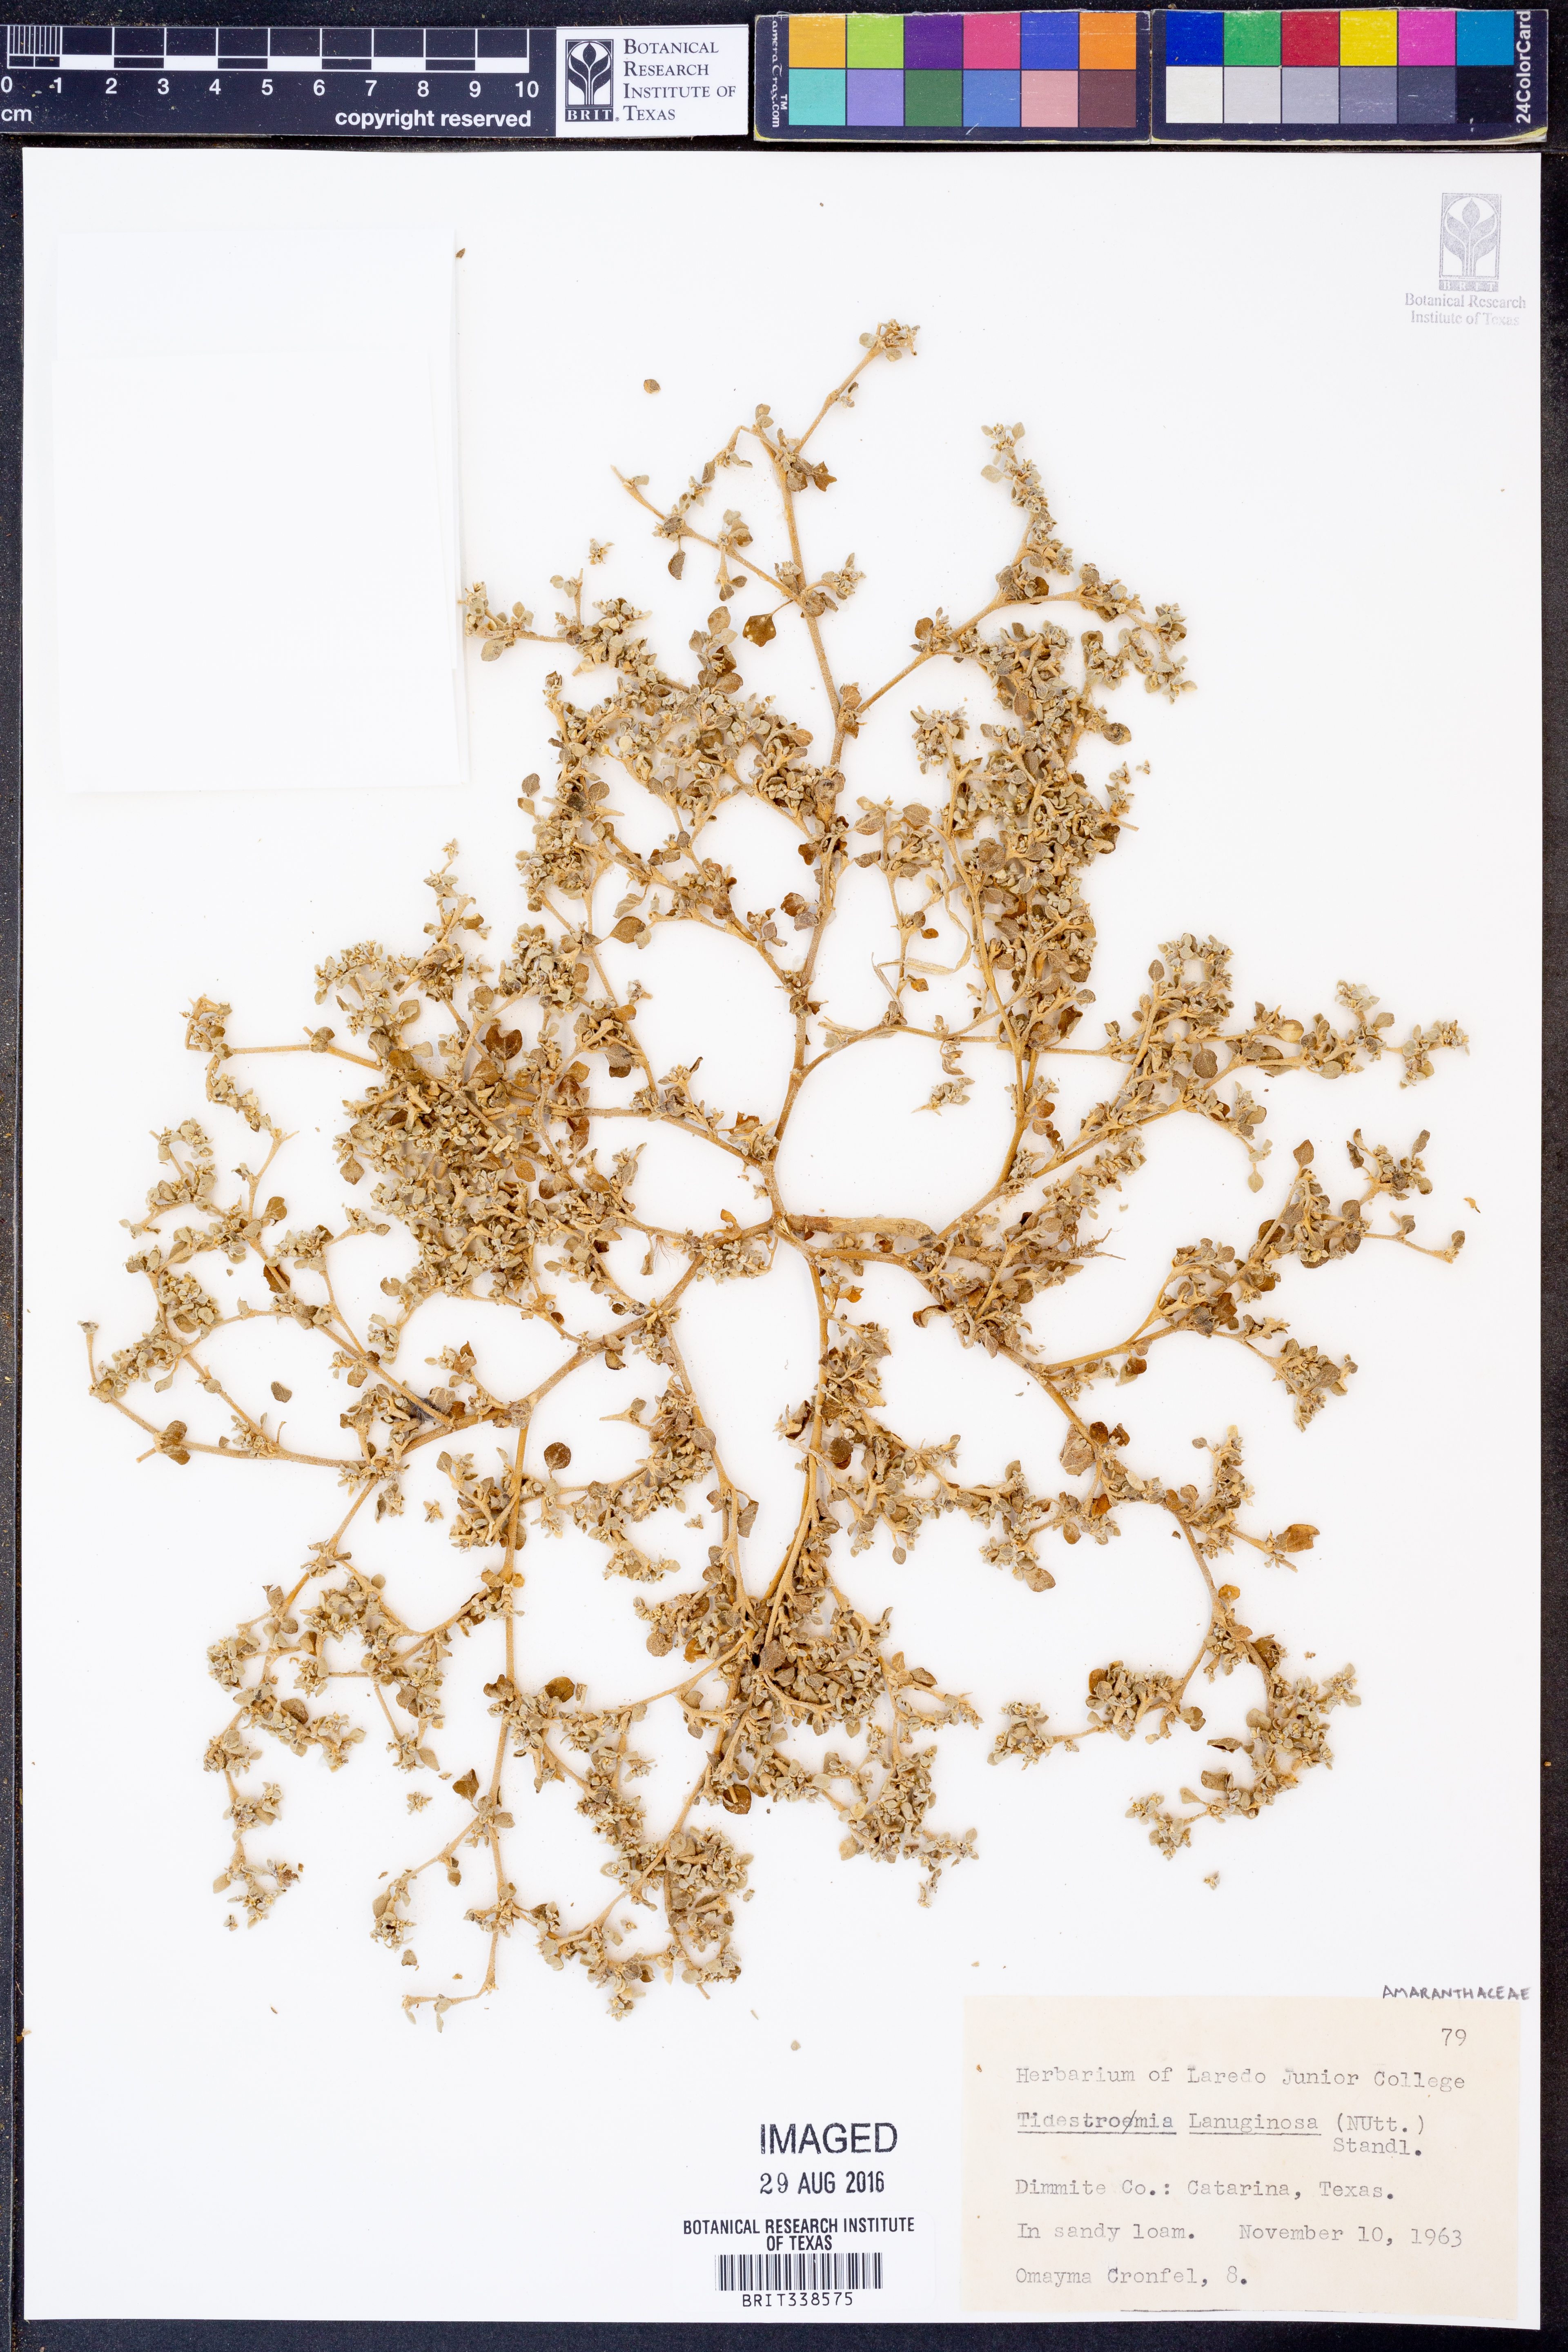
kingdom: Plantae
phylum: Tracheophyta
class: Magnoliopsida
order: Caryophyllales
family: Amaranthaceae
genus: Tidestromia
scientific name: Tidestromia lanuginosa
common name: Woolly tidestromia
